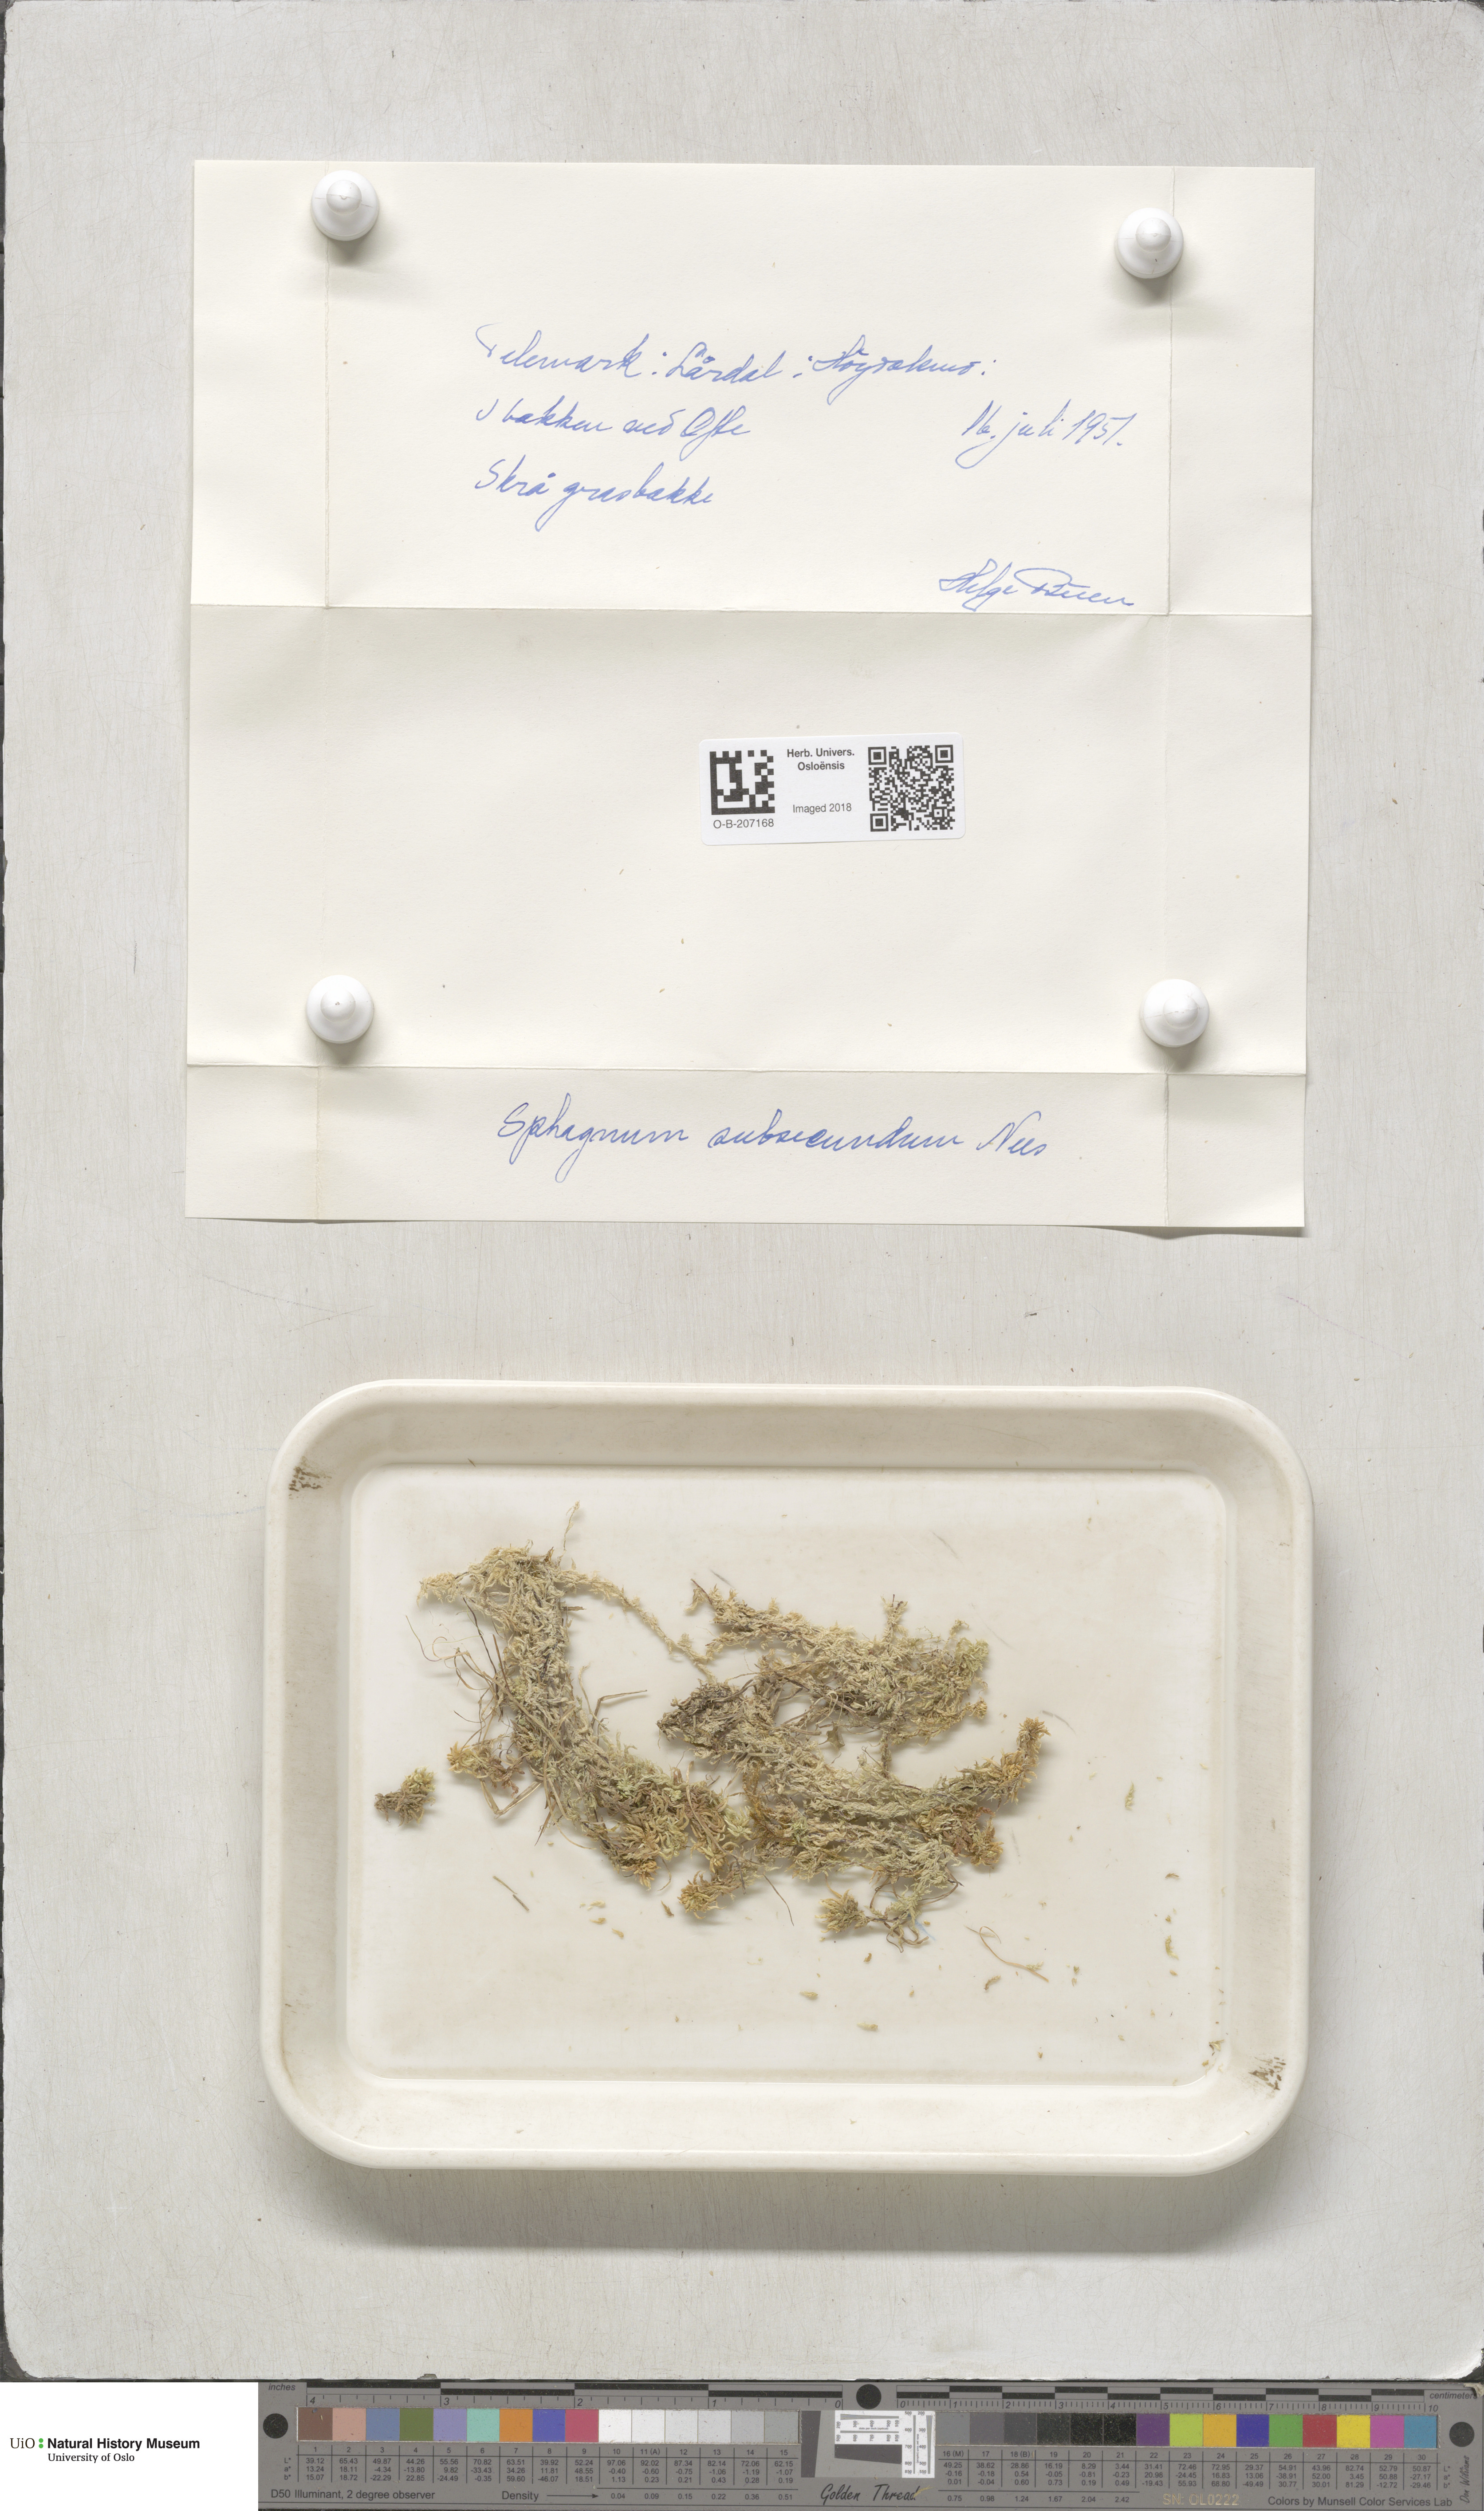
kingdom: Plantae
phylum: Bryophyta
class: Sphagnopsida
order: Sphagnales
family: Sphagnaceae
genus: Sphagnum
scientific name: Sphagnum subsecundum
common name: Orange peat moss
